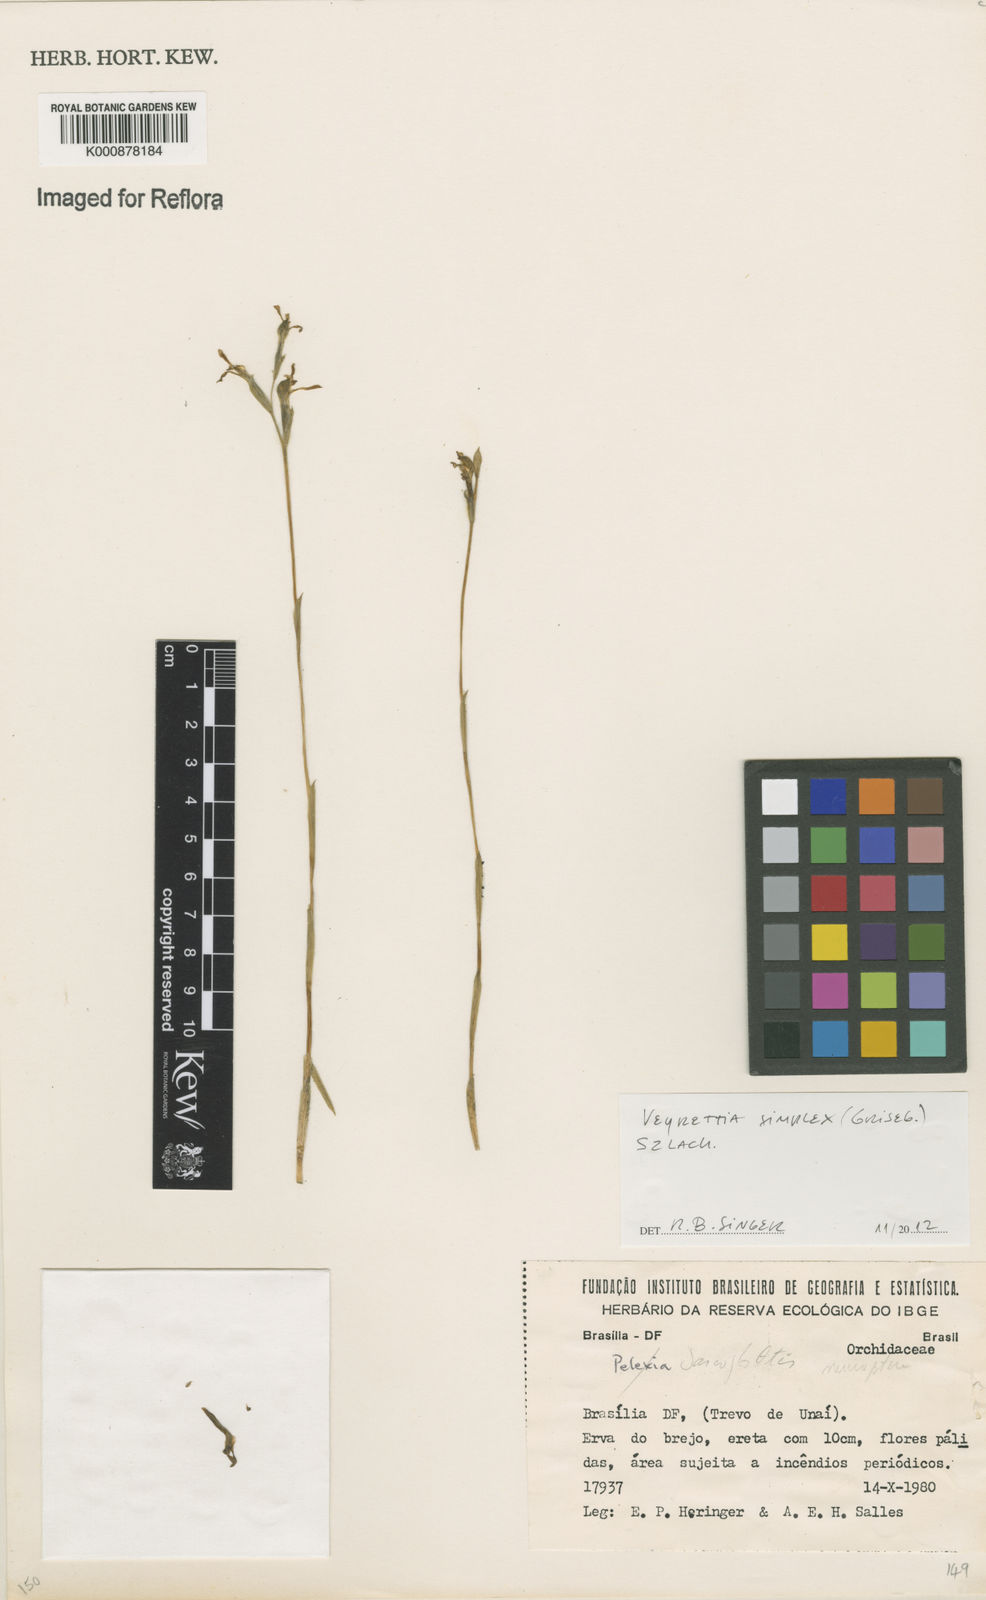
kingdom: Plantae
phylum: Tracheophyta
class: Liliopsida
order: Asparagales
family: Orchidaceae
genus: Veyretia
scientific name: Veyretia simplex
